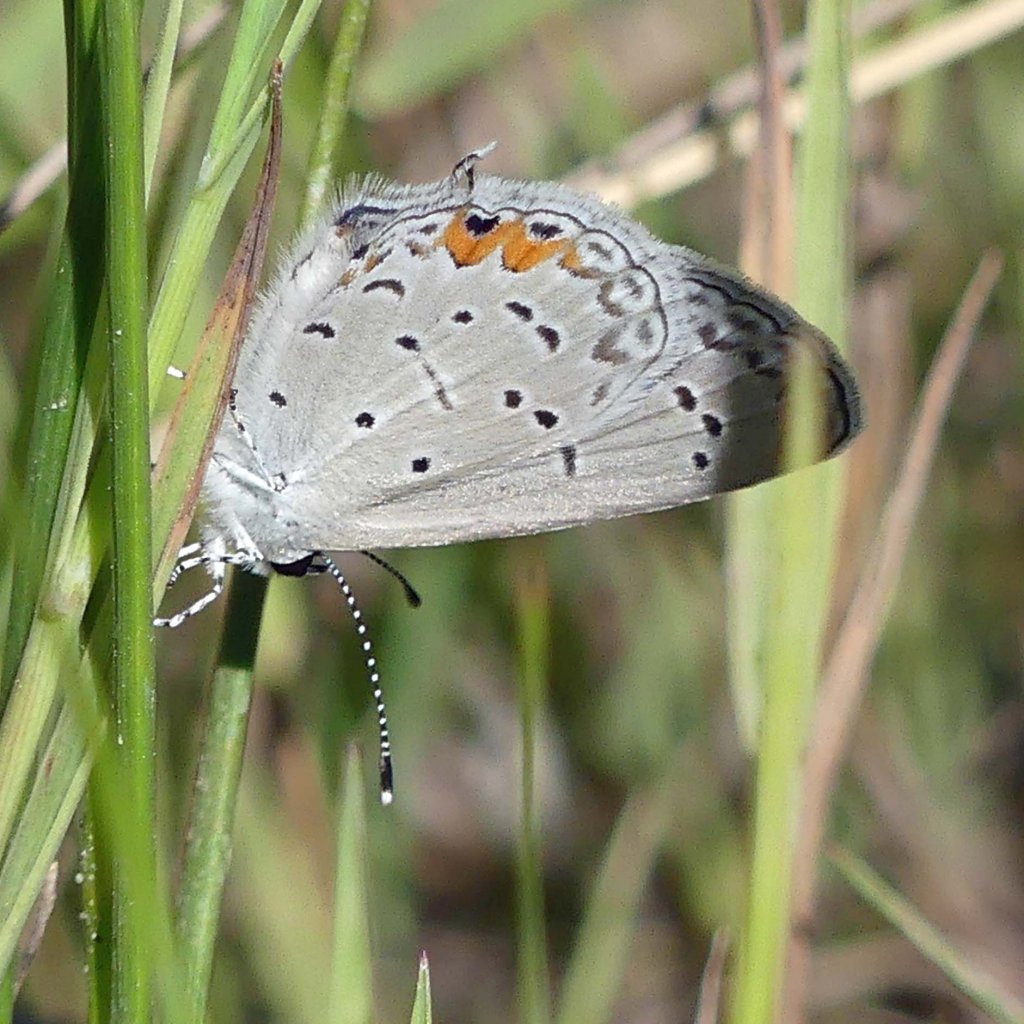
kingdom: Animalia
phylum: Arthropoda
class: Insecta
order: Lepidoptera
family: Lycaenidae
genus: Elkalyce
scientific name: Elkalyce comyntas
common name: Eastern Tailed-Blue
